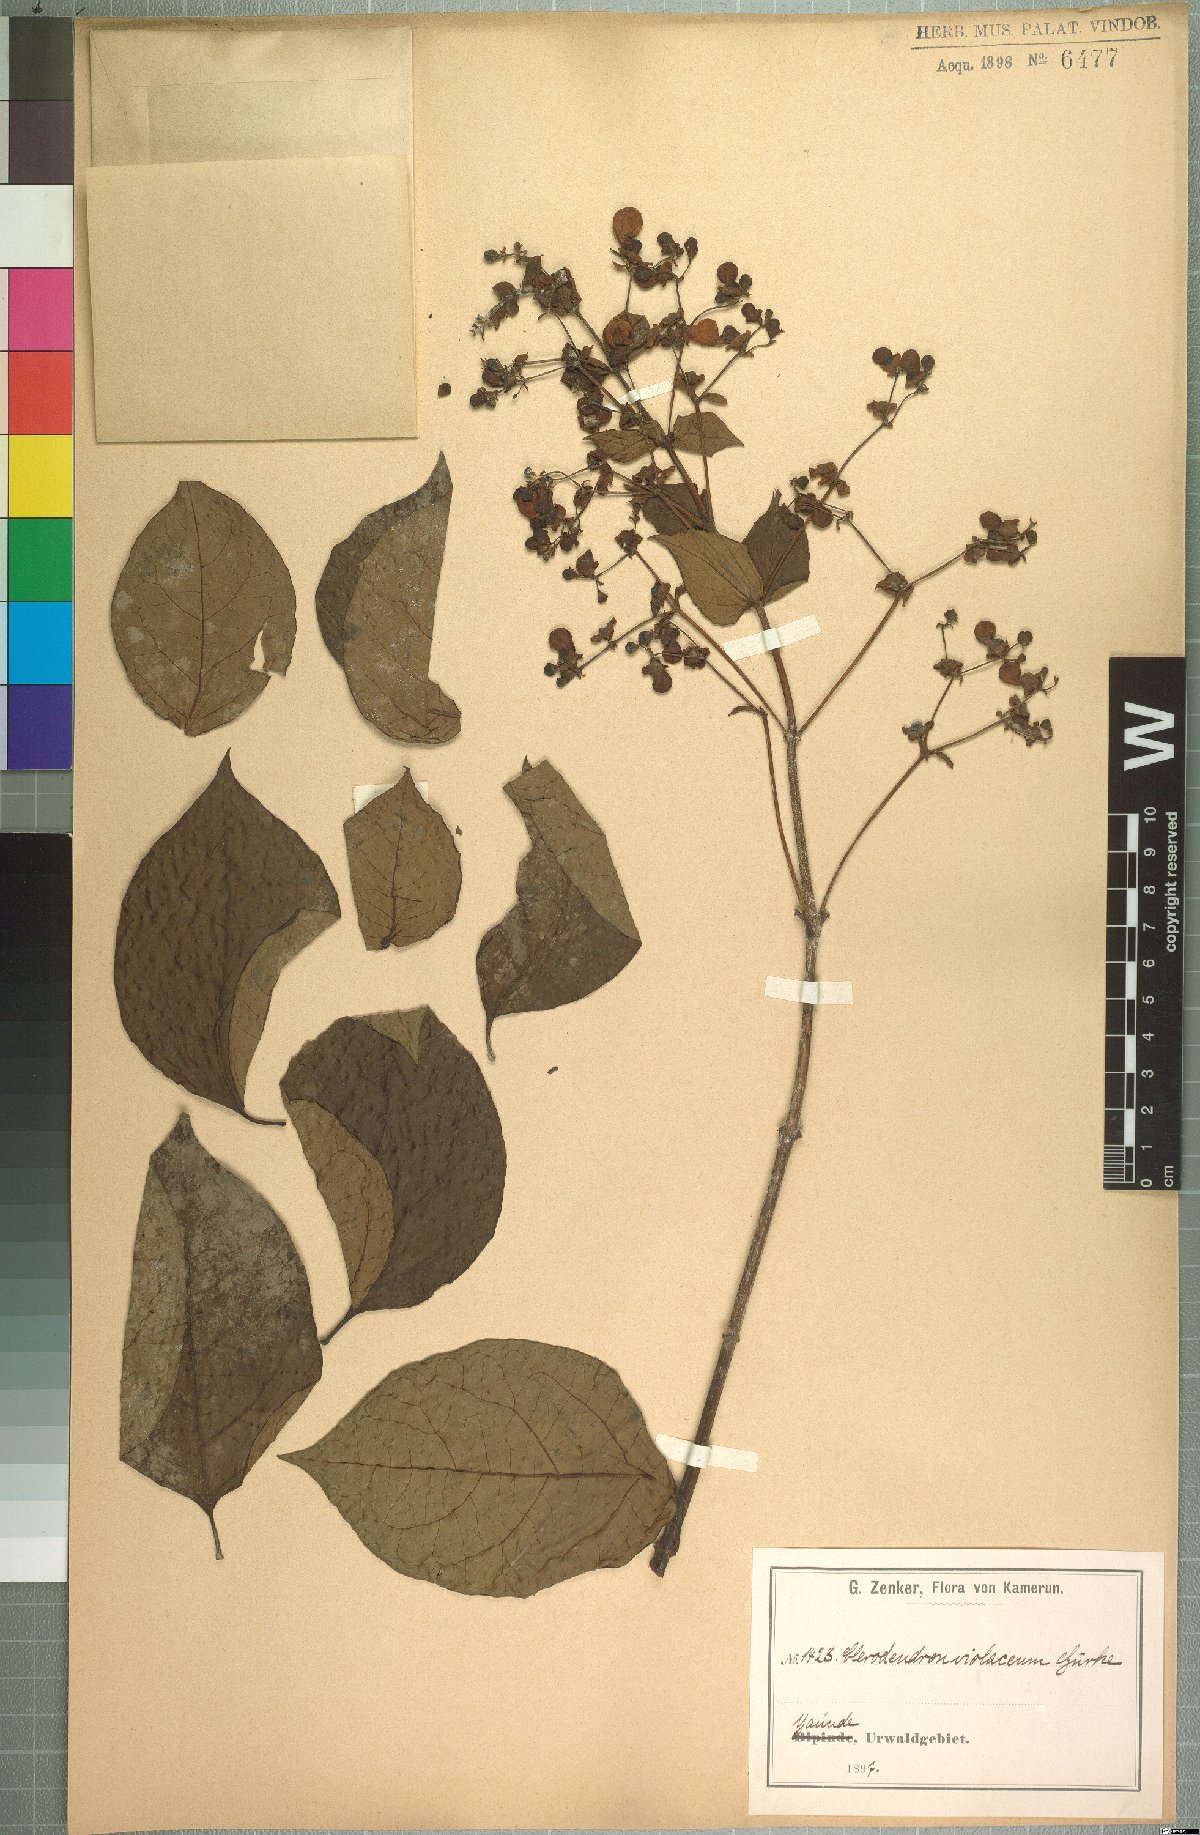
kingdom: Plantae
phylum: Tracheophyta
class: Magnoliopsida
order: Lamiales
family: Lamiaceae
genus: Rotheca
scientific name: Rotheca violacea
